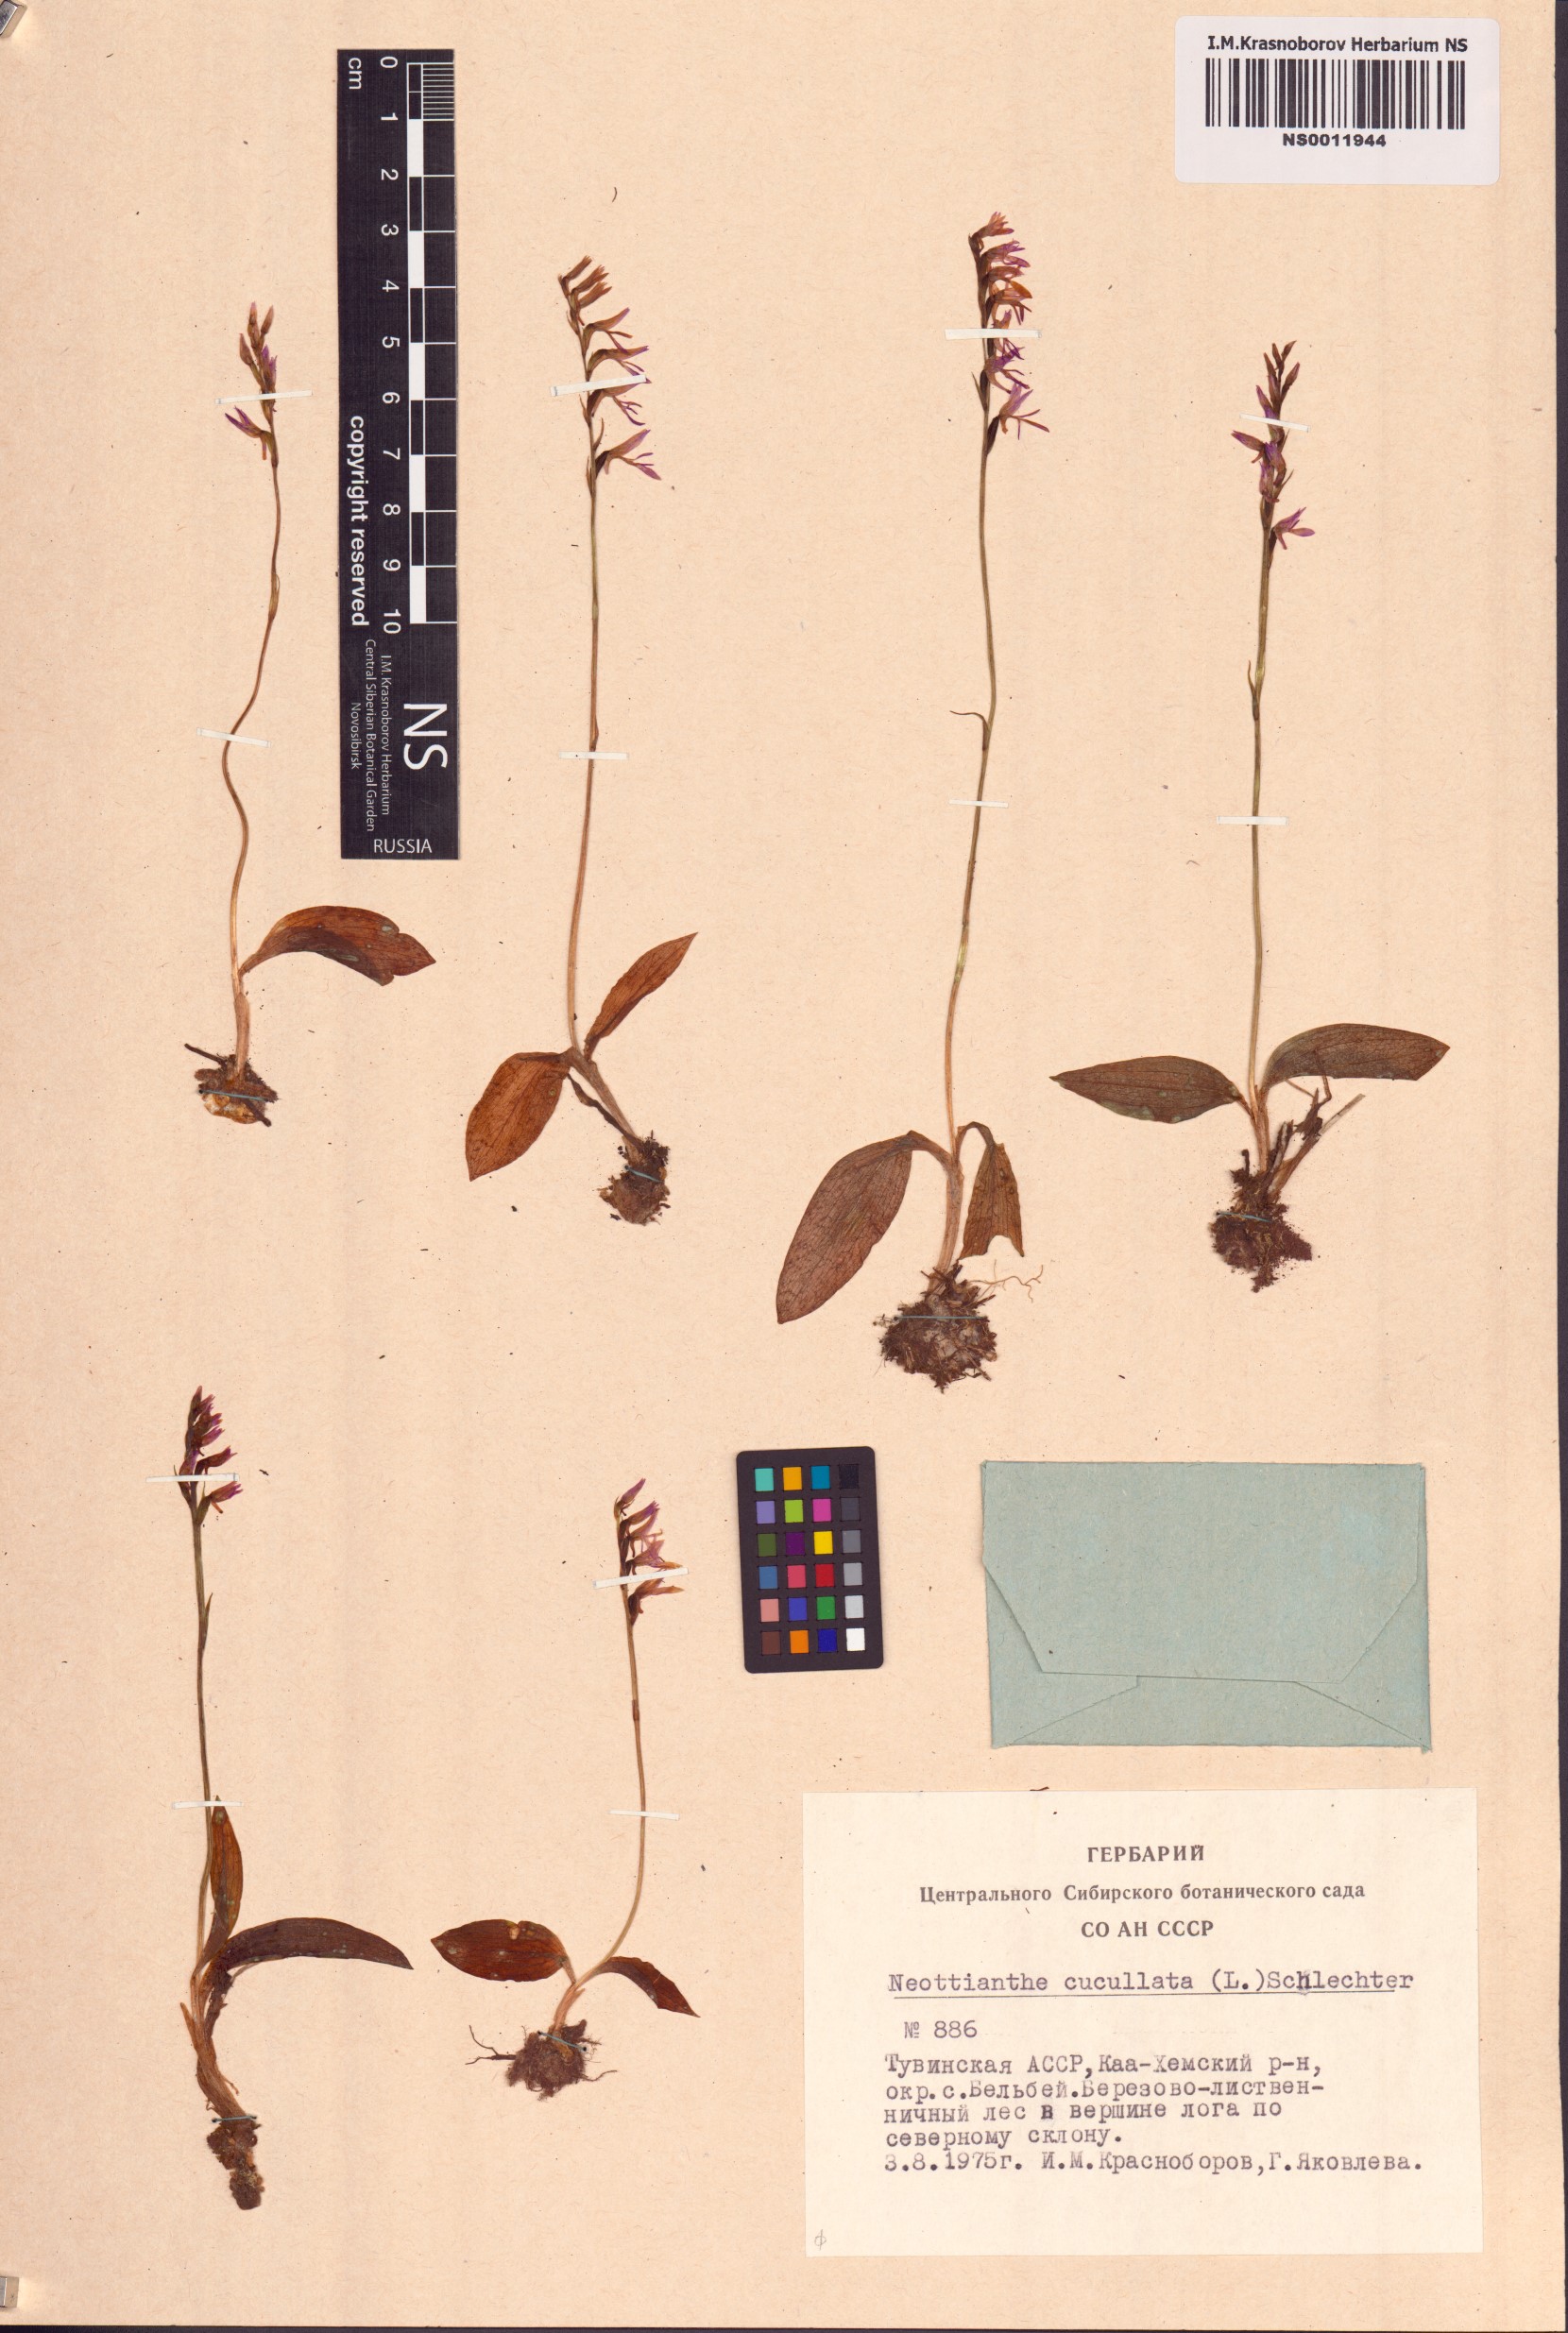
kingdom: Plantae
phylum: Tracheophyta
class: Liliopsida
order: Asparagales
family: Orchidaceae
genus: Hemipilia
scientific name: Hemipilia cucullata
